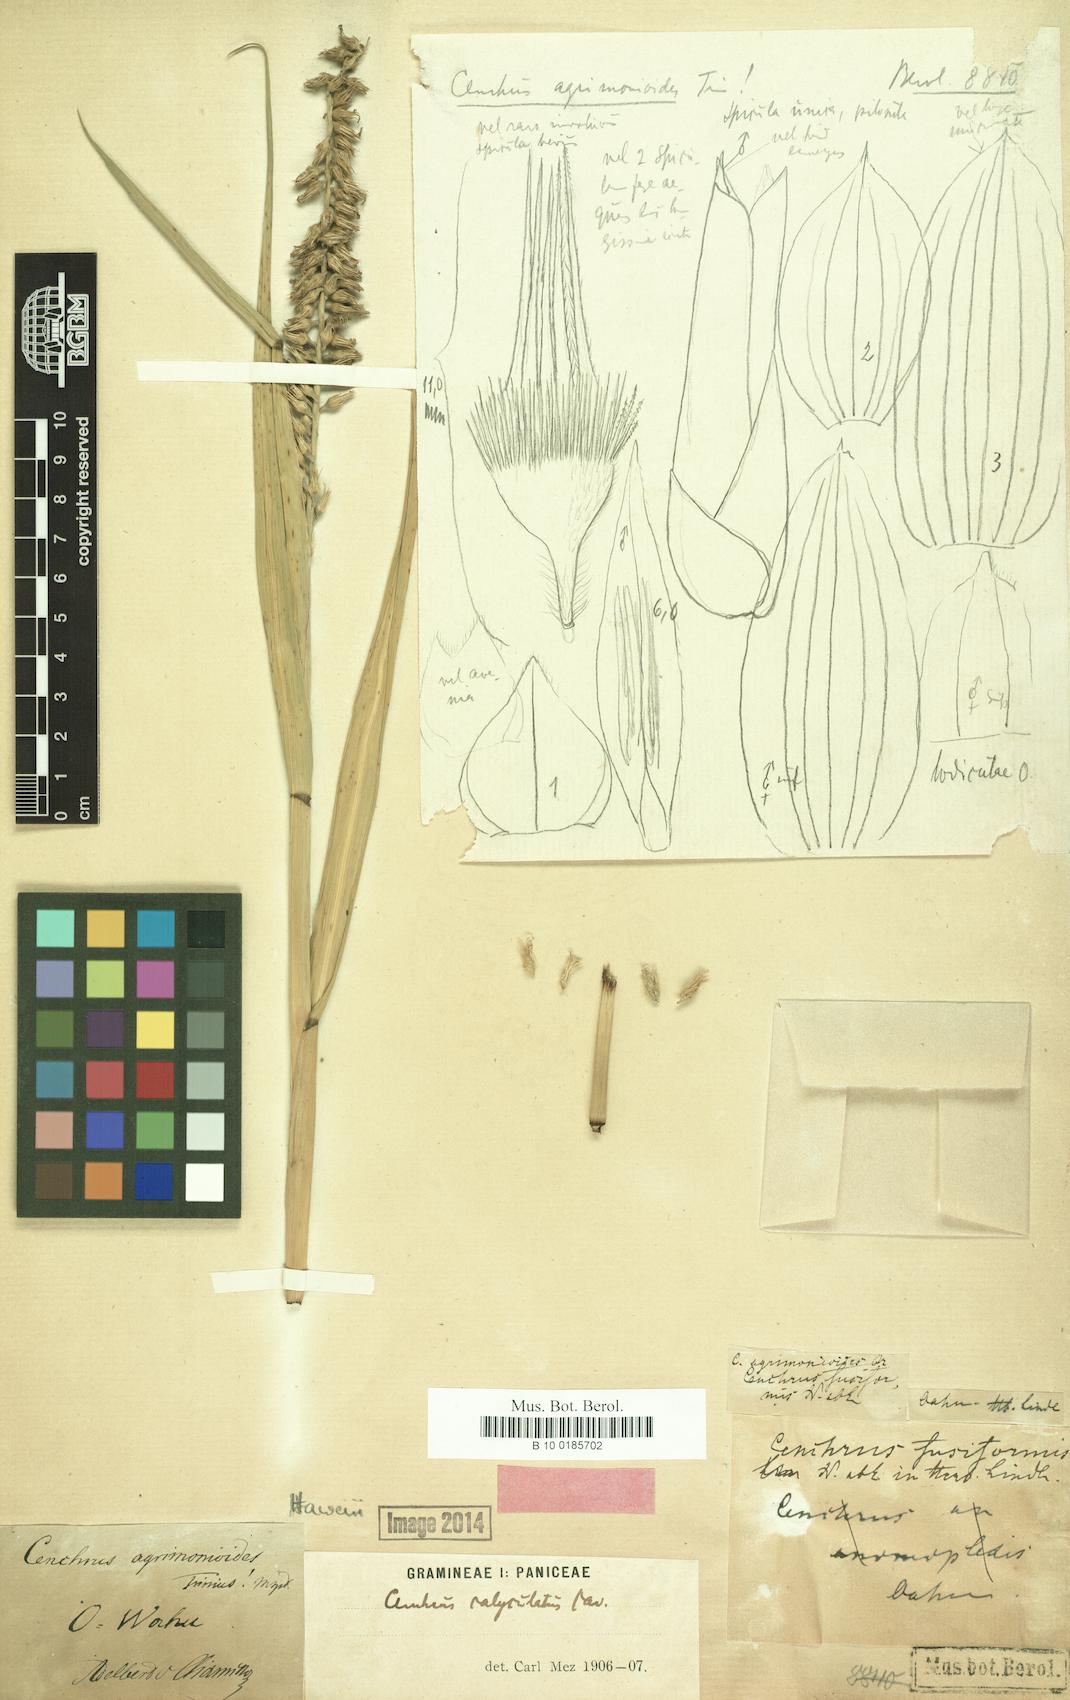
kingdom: Plantae
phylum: Tracheophyta
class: Liliopsida
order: Poales
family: Poaceae
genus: Cenchrus
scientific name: Cenchrus agrimonoides
